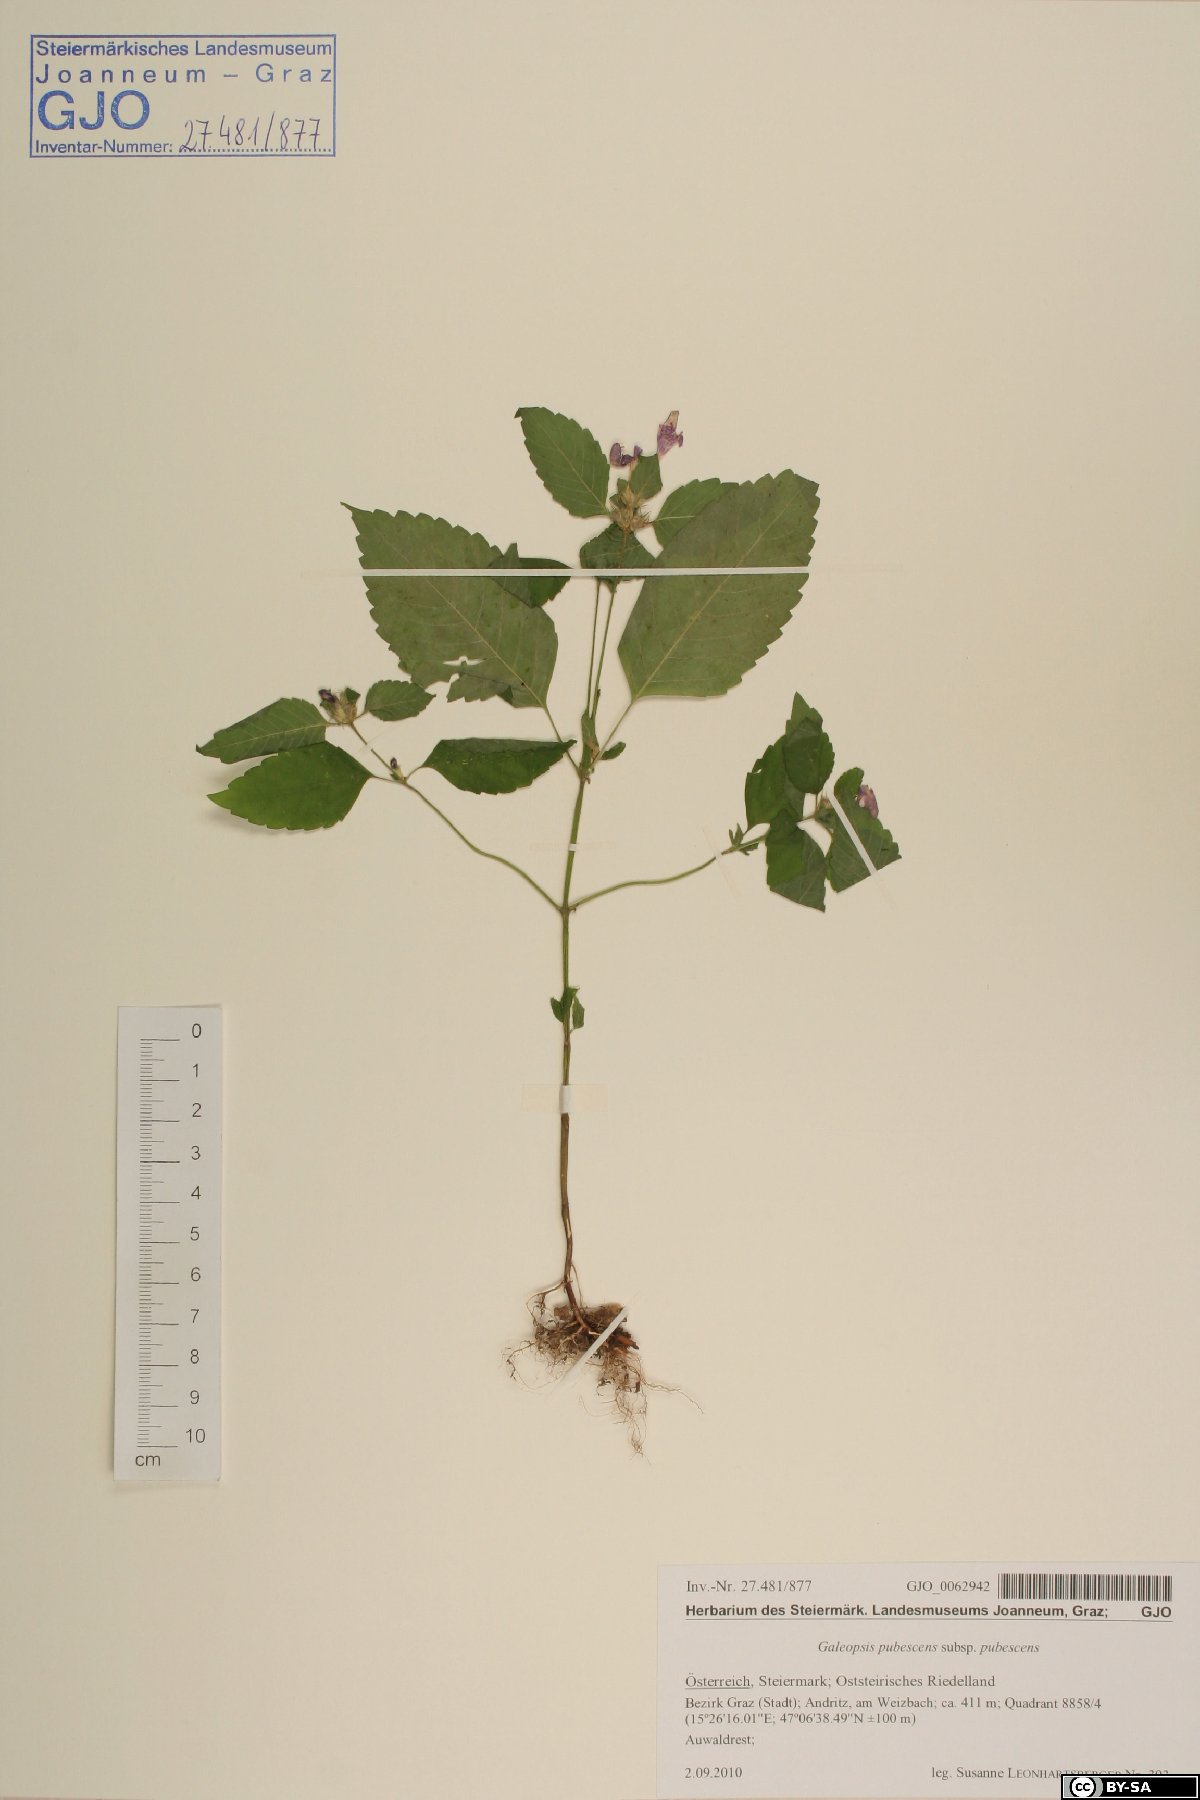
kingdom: Plantae
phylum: Tracheophyta
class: Magnoliopsida
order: Lamiales
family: Lamiaceae
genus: Galeopsis
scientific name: Galeopsis pubescens
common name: Downy hemp-nettle
